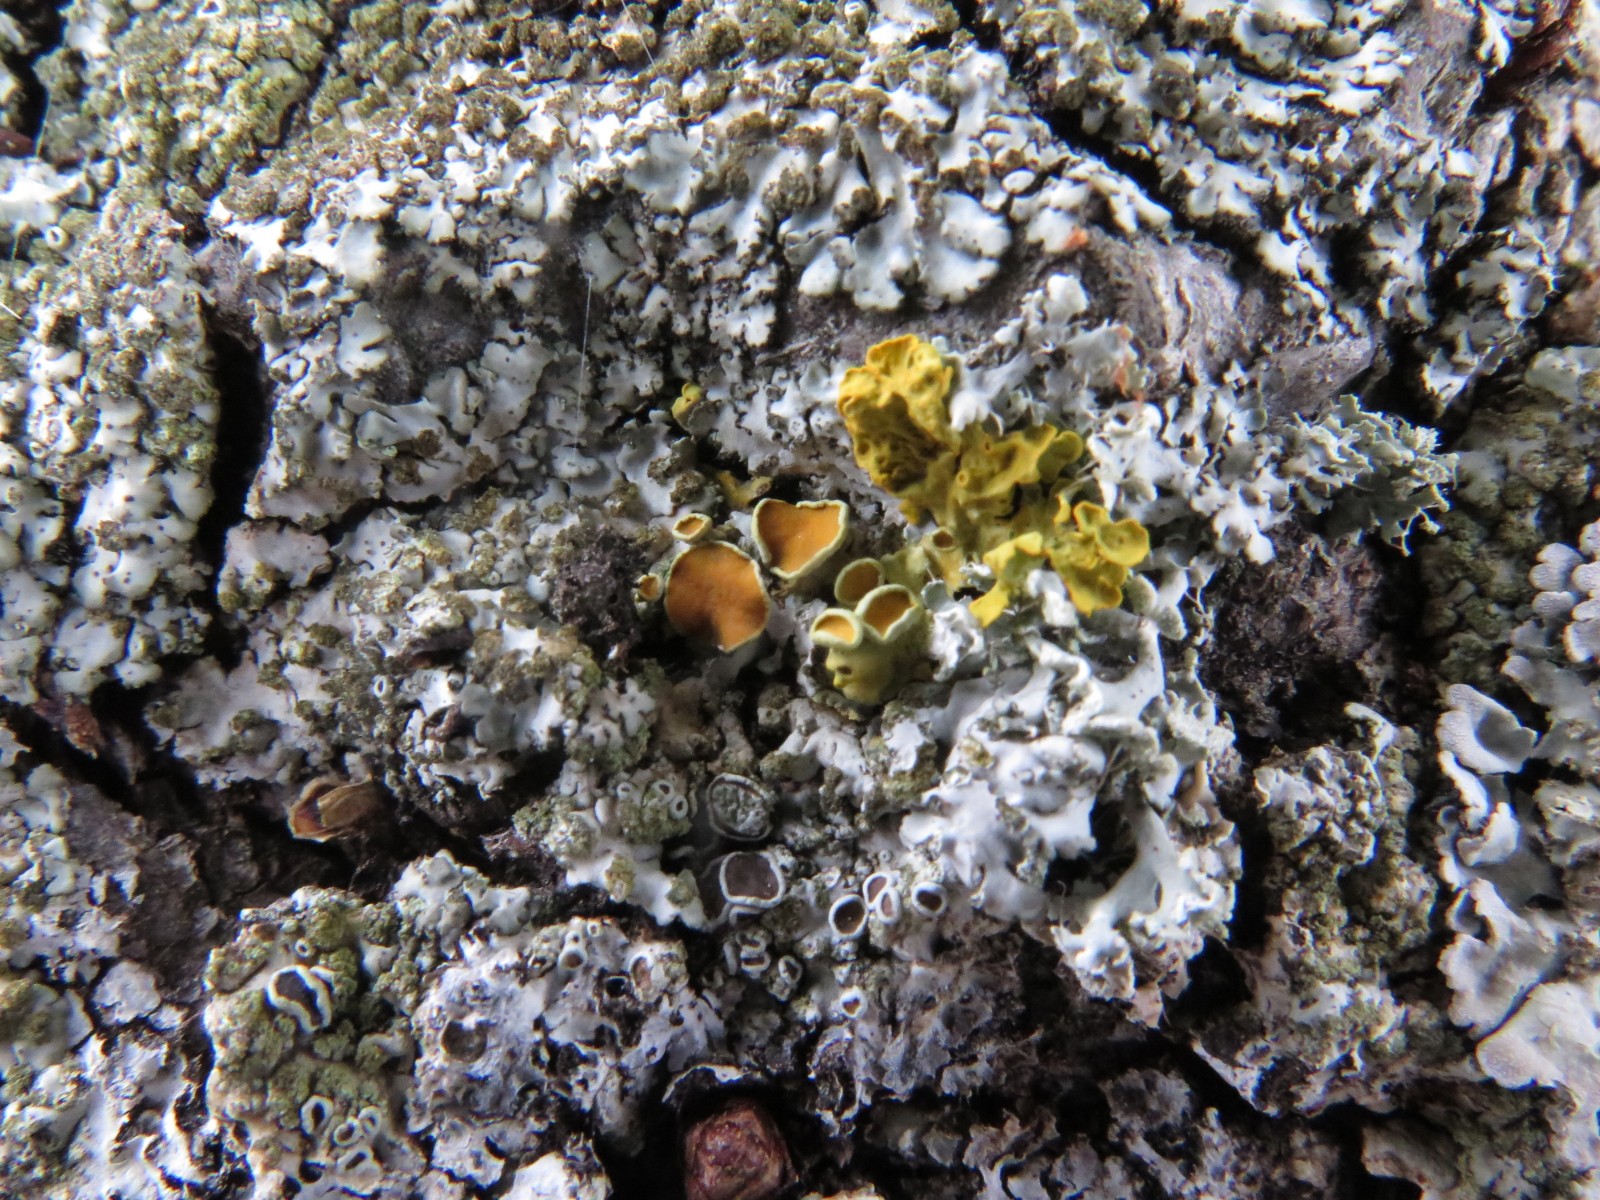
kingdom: Fungi
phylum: Ascomycota
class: Lecanoromycetes
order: Teloschistales
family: Teloschistaceae
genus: Xanthoria
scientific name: Xanthoria parietina
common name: almindelig væggelav
